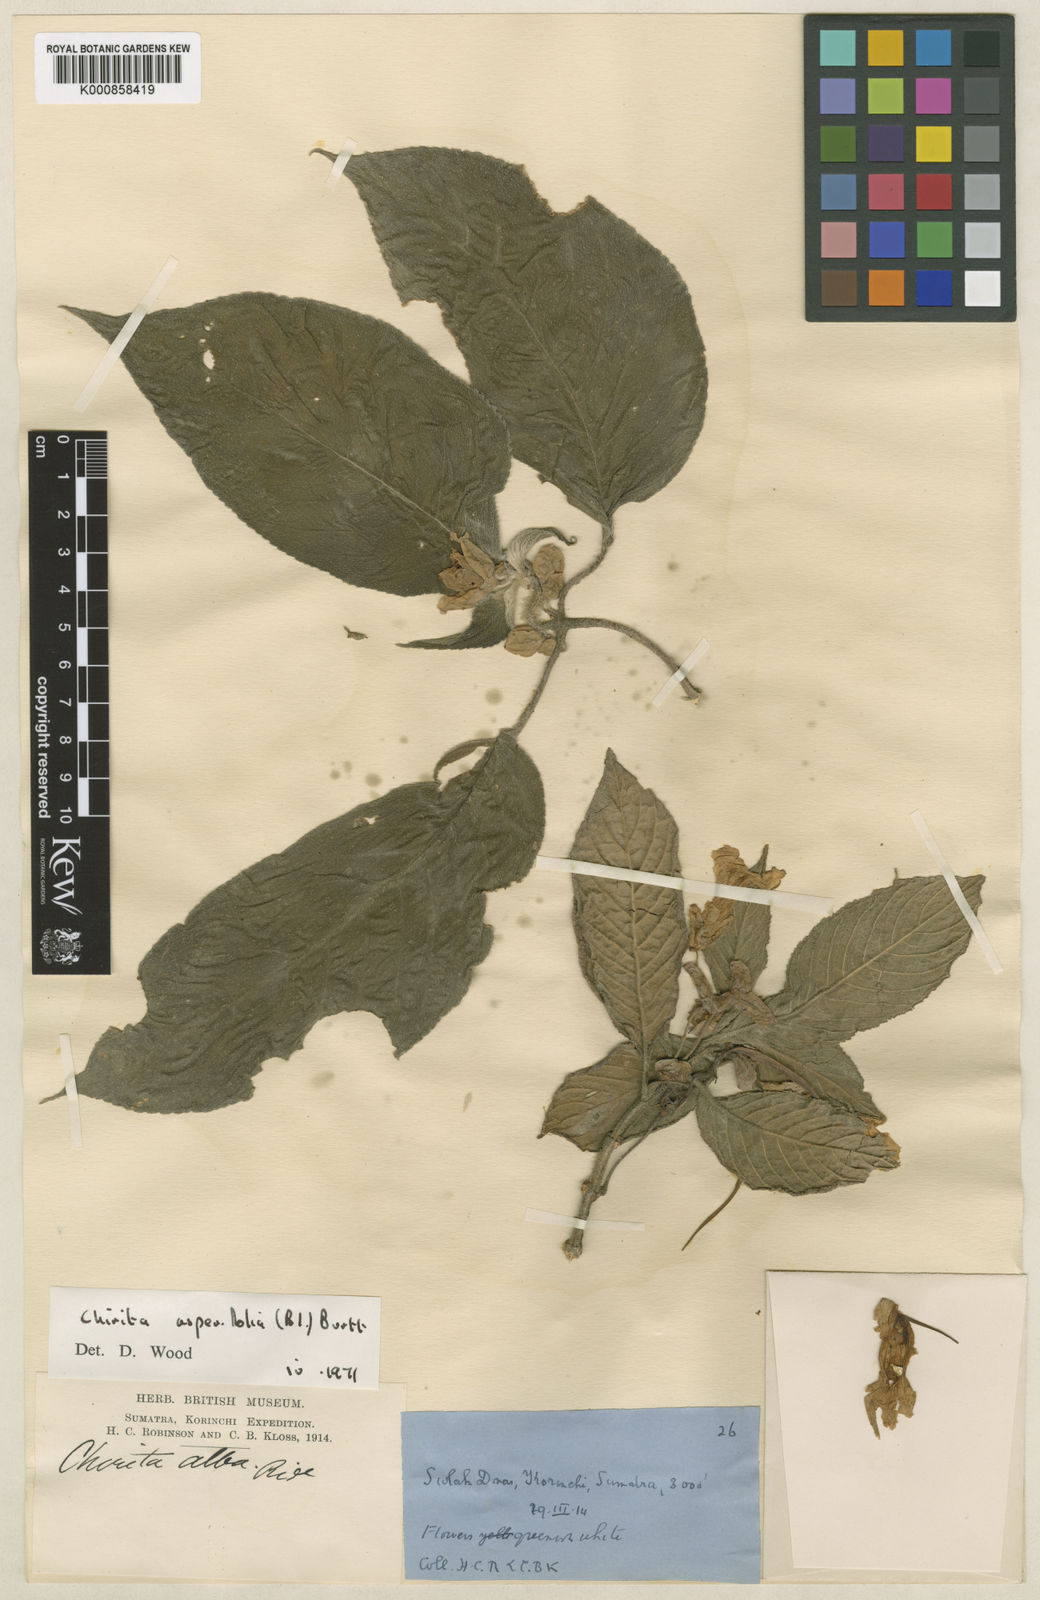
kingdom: Plantae
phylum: Tracheophyta
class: Magnoliopsida
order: Lamiales
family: Gesneriaceae
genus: Liebigia
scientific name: Liebigia polyneura
